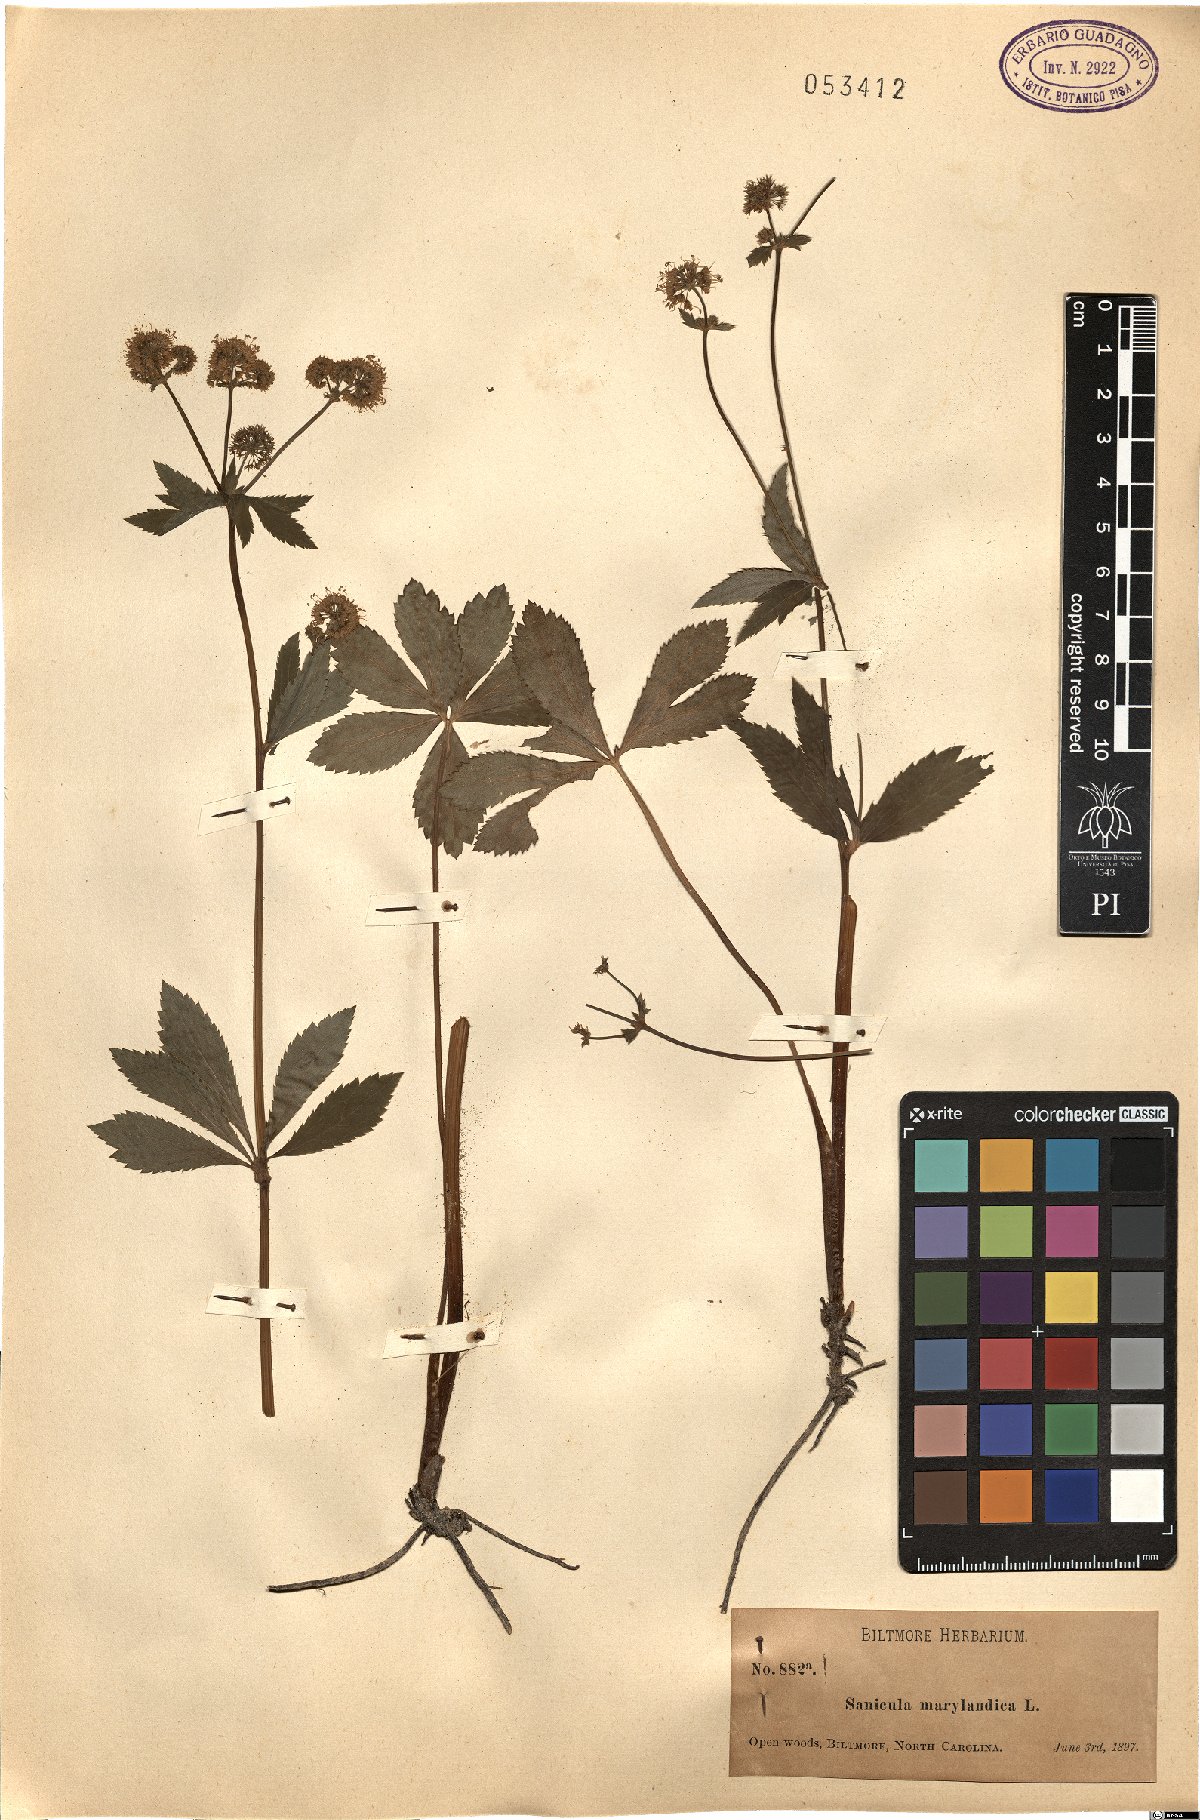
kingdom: Plantae
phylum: Tracheophyta
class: Magnoliopsida
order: Apiales
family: Apiaceae
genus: Sanicula
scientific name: Sanicula marilandica
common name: Black snakeroot
